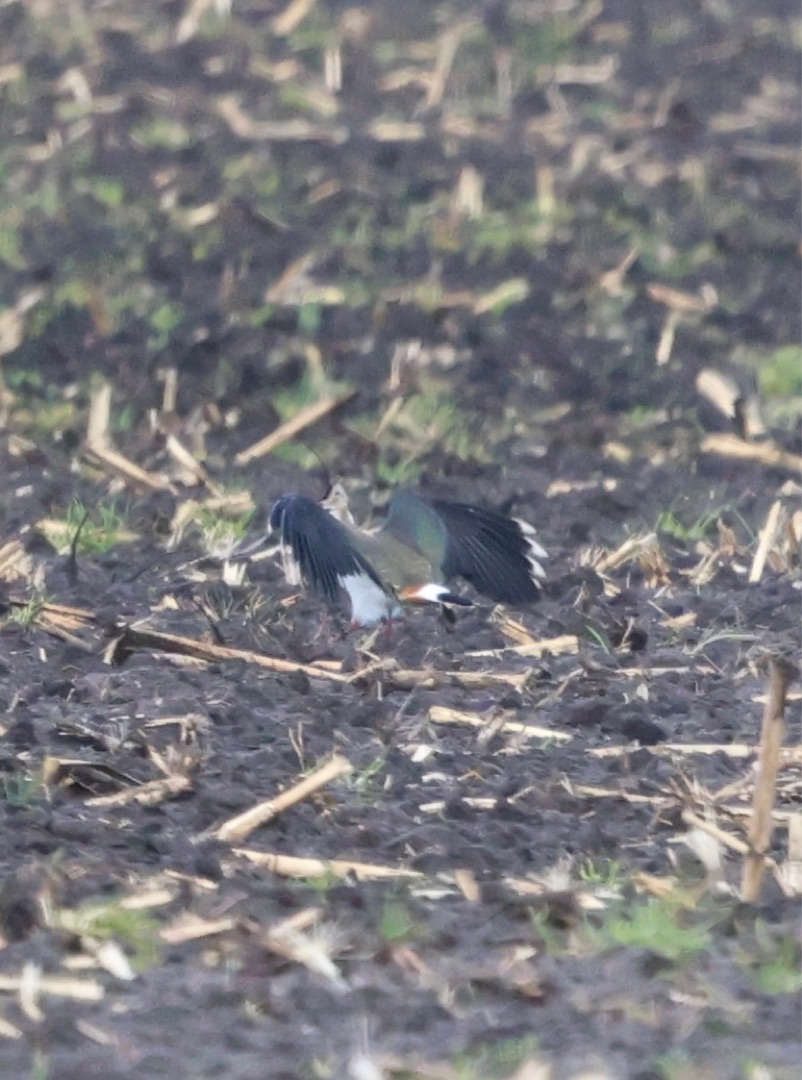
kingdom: Animalia
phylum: Chordata
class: Aves
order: Charadriiformes
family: Charadriidae
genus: Vanellus
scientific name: Vanellus vanellus
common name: Vibe
